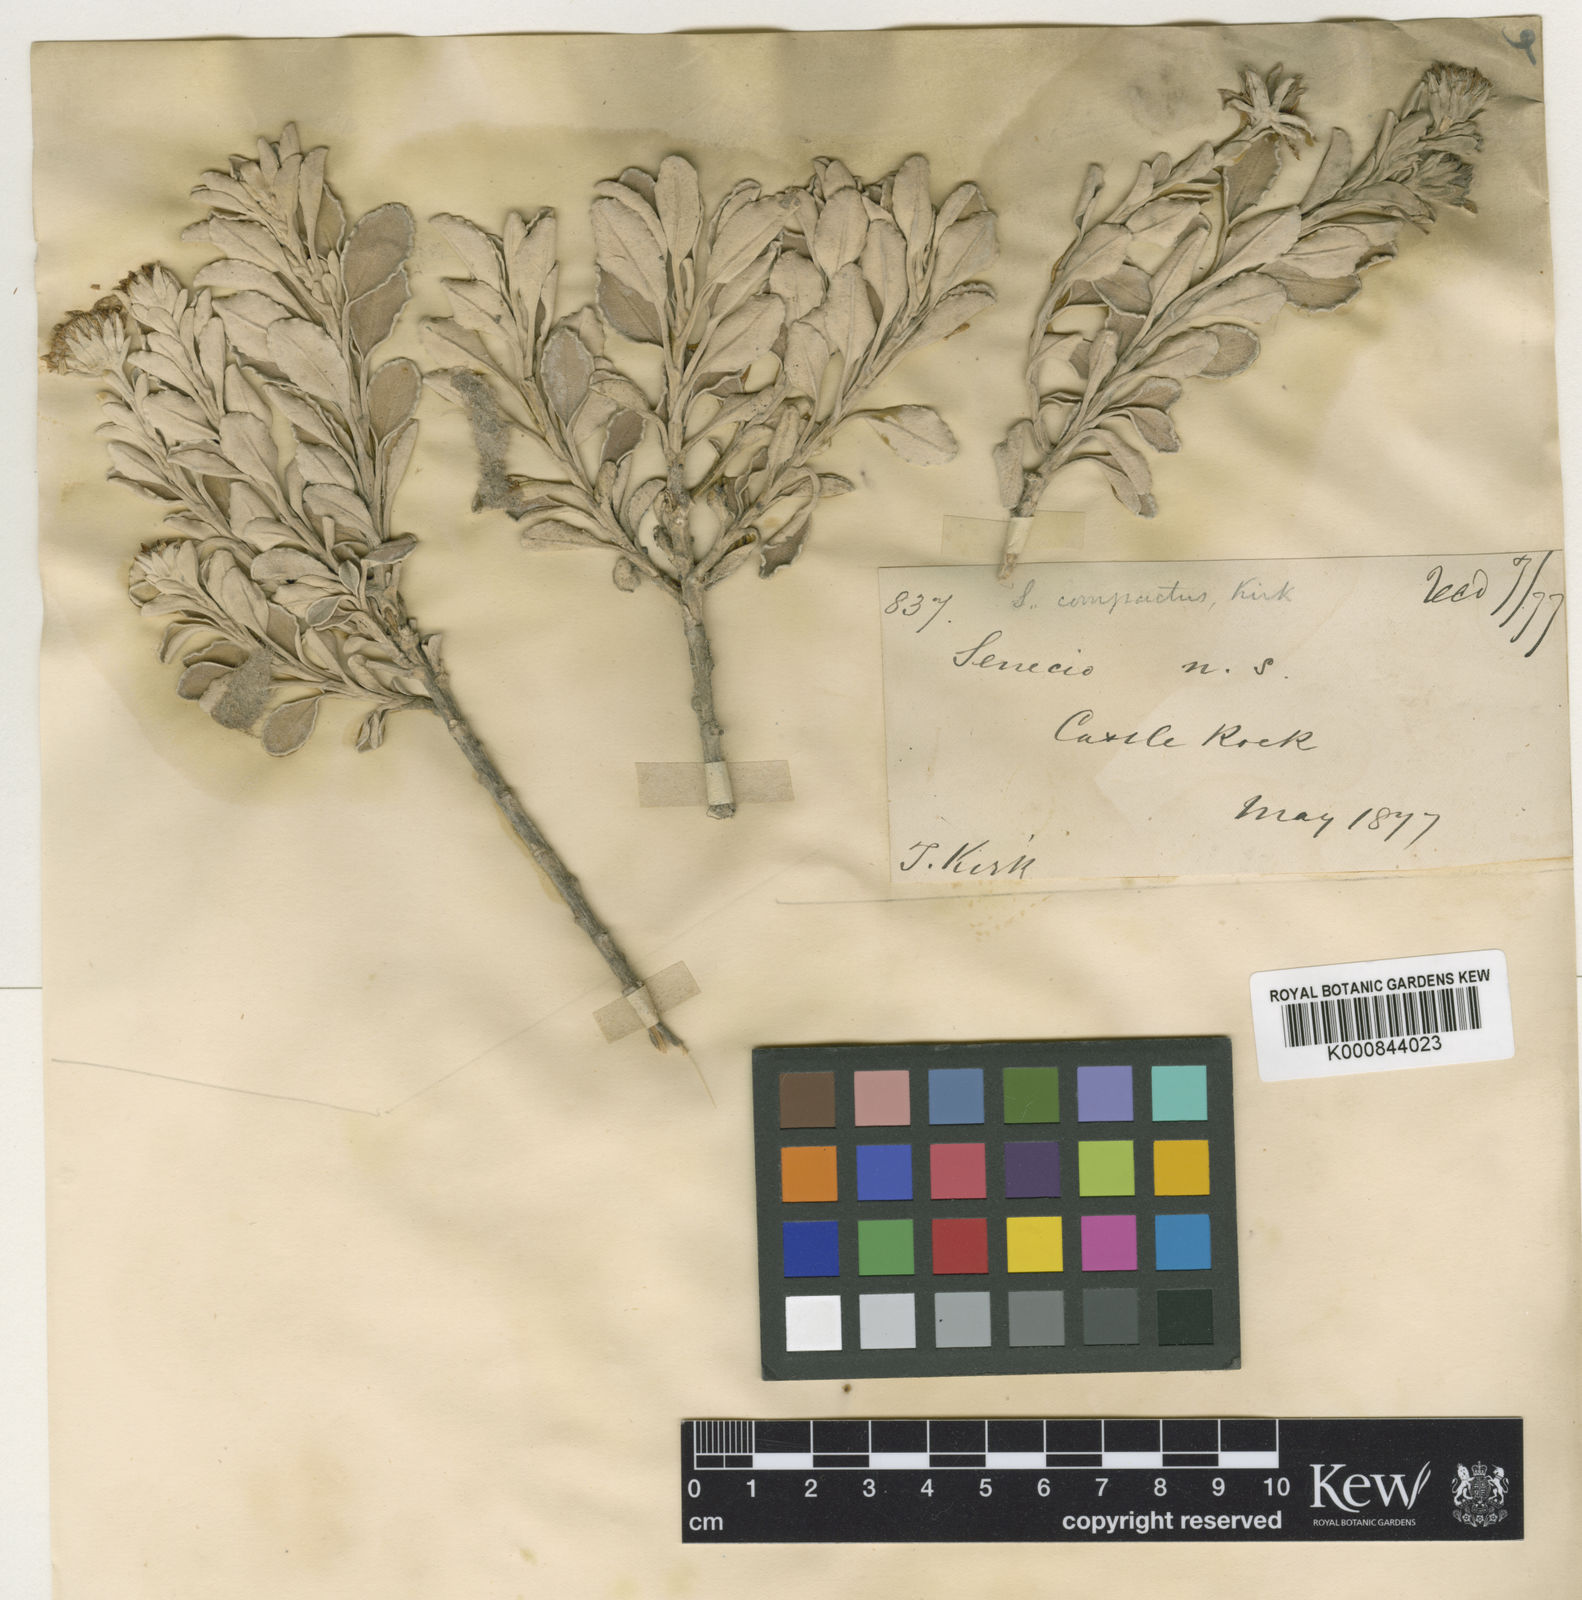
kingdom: Plantae
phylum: Tracheophyta
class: Magnoliopsida
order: Asterales
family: Asteraceae
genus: Brachyglottis
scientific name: Brachyglottis compacta
